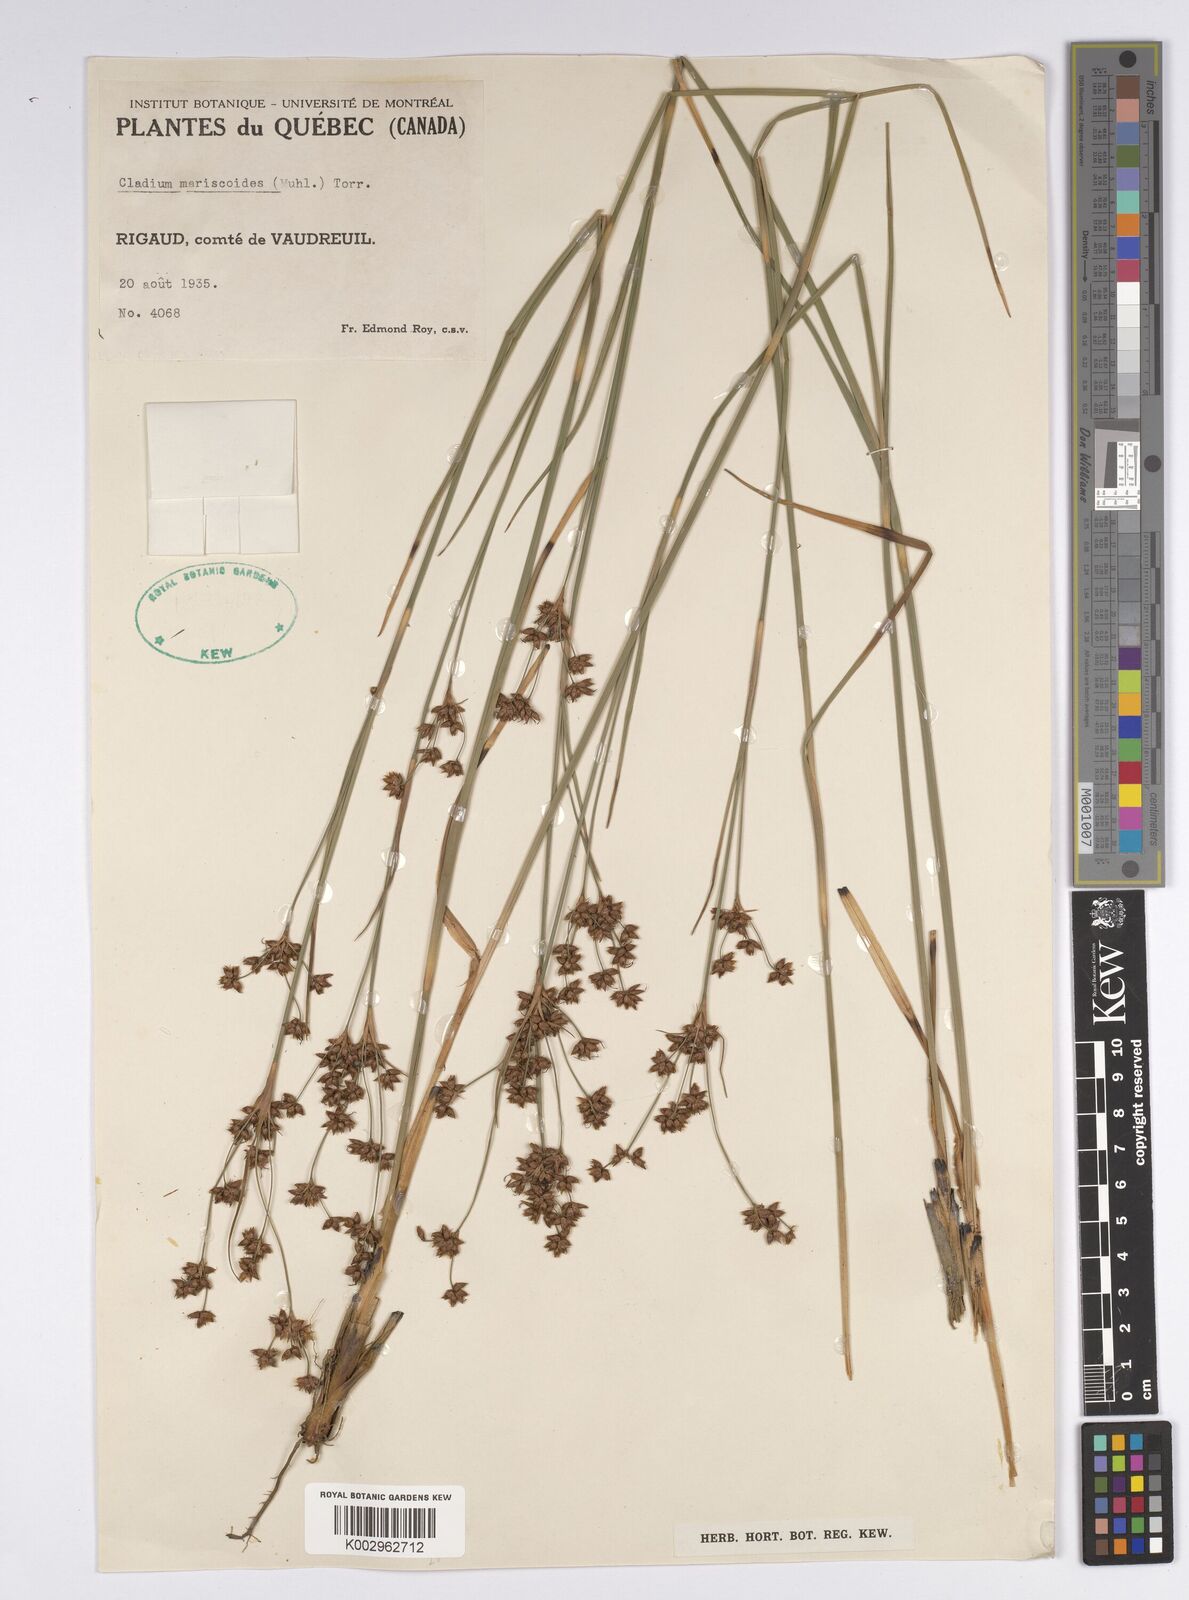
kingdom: Plantae
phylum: Tracheophyta
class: Liliopsida
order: Poales
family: Cyperaceae
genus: Cladium
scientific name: Cladium mariscoides
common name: Smooth sawgrass
